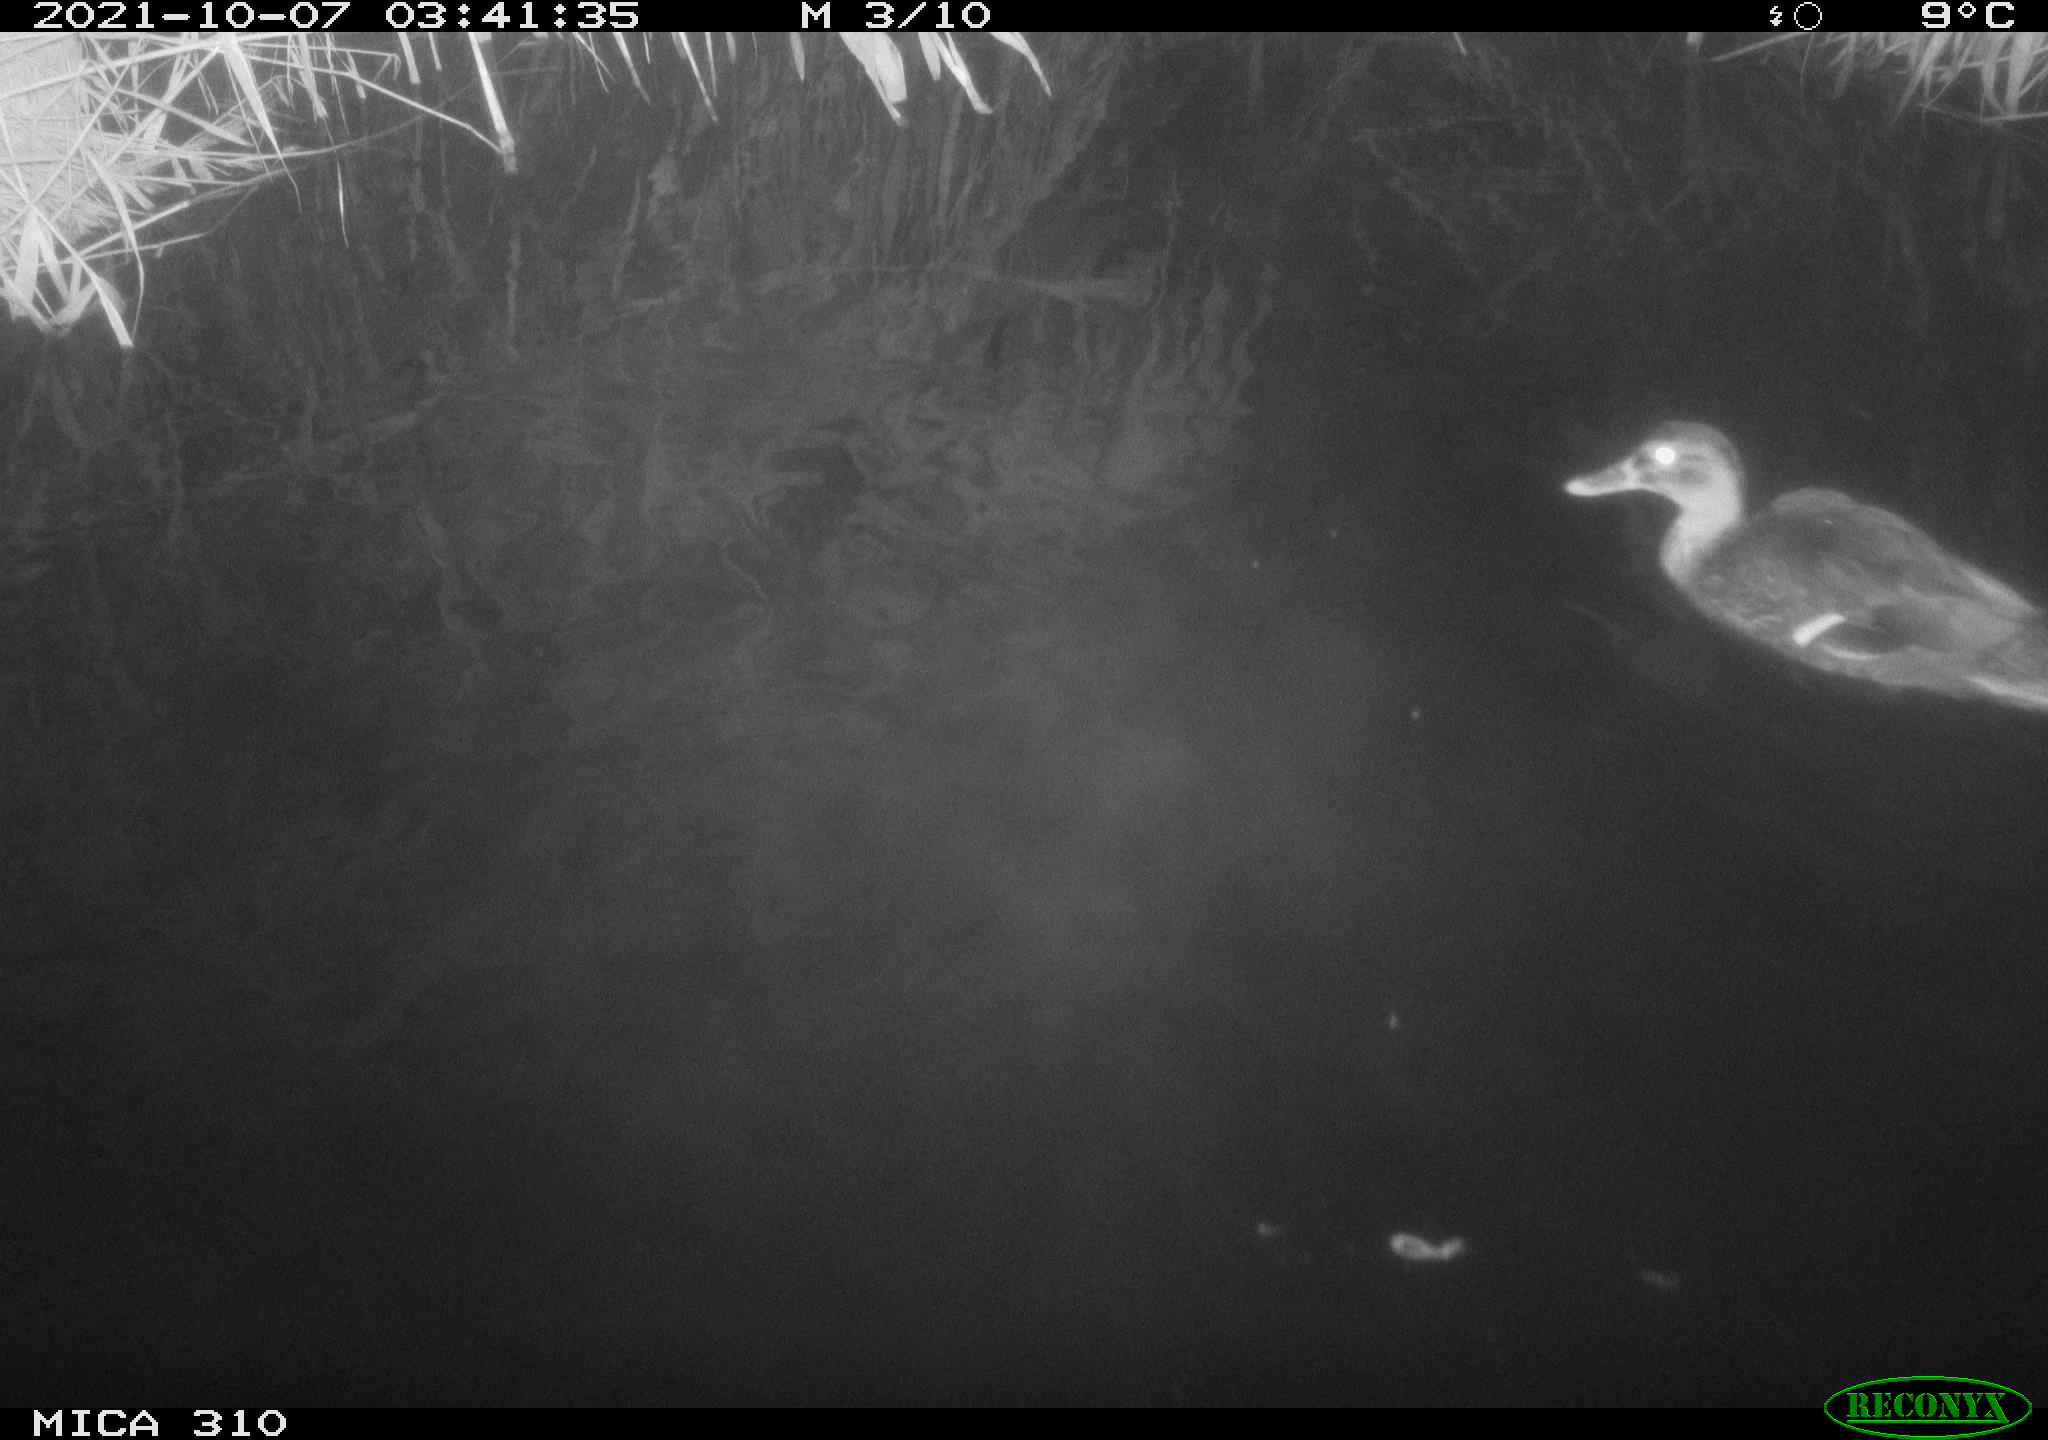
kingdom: Animalia
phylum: Chordata
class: Aves
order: Anseriformes
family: Anatidae
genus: Anas
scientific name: Anas platyrhynchos
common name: Mallard
